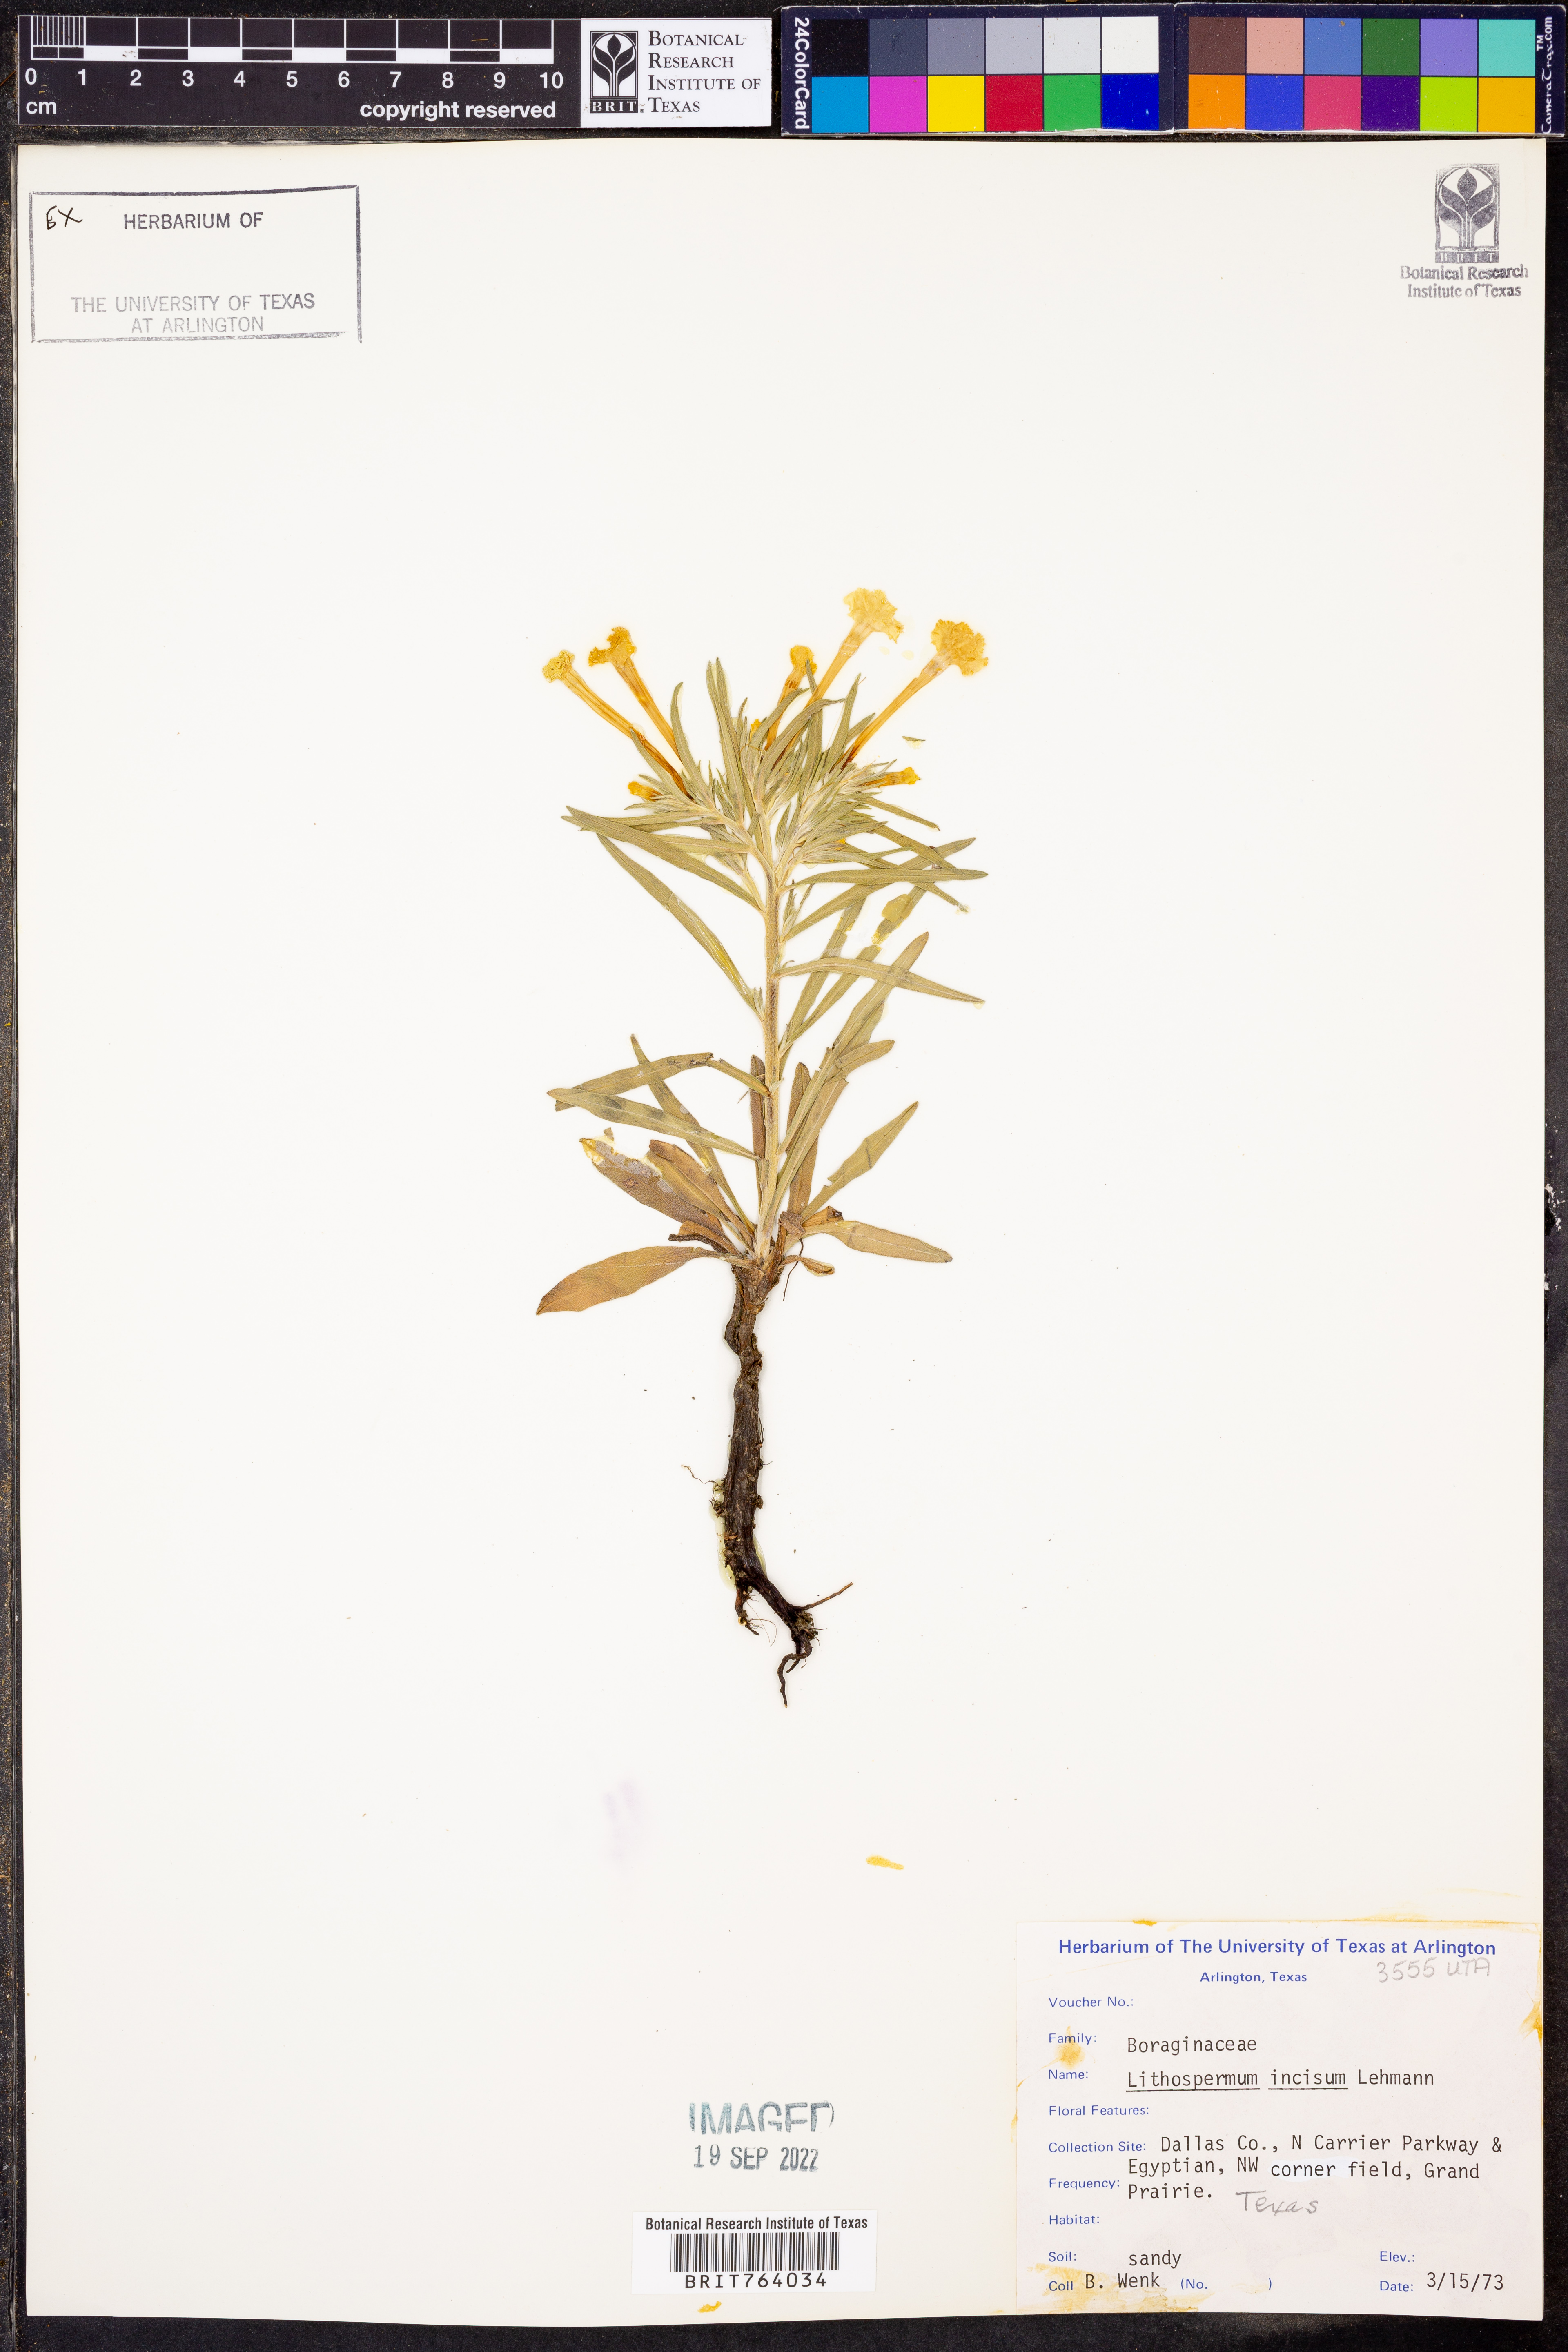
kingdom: Plantae
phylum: Tracheophyta
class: Magnoliopsida
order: Boraginales
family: Boraginaceae
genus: Lithospermum
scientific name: Lithospermum incisum
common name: Fringed gromwell
